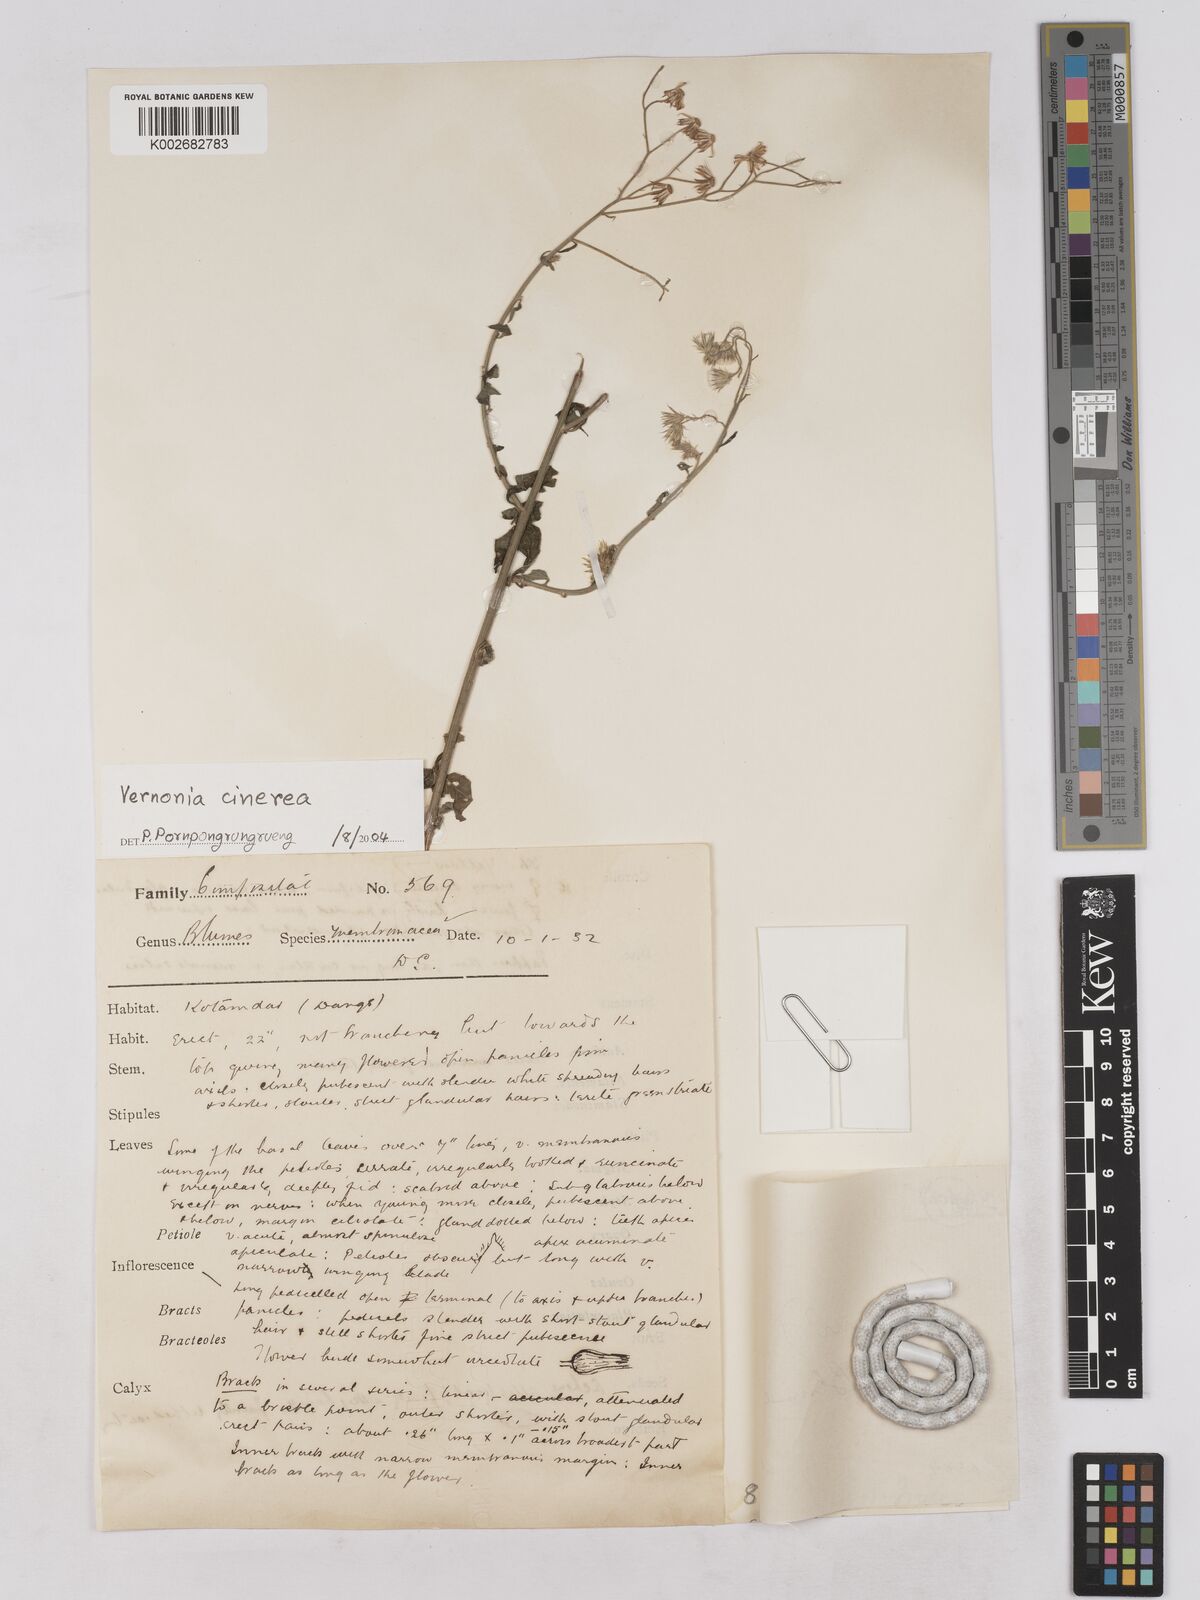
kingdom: Plantae
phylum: Tracheophyta
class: Magnoliopsida
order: Asterales
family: Asteraceae
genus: Vernonia
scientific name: Vernonia
